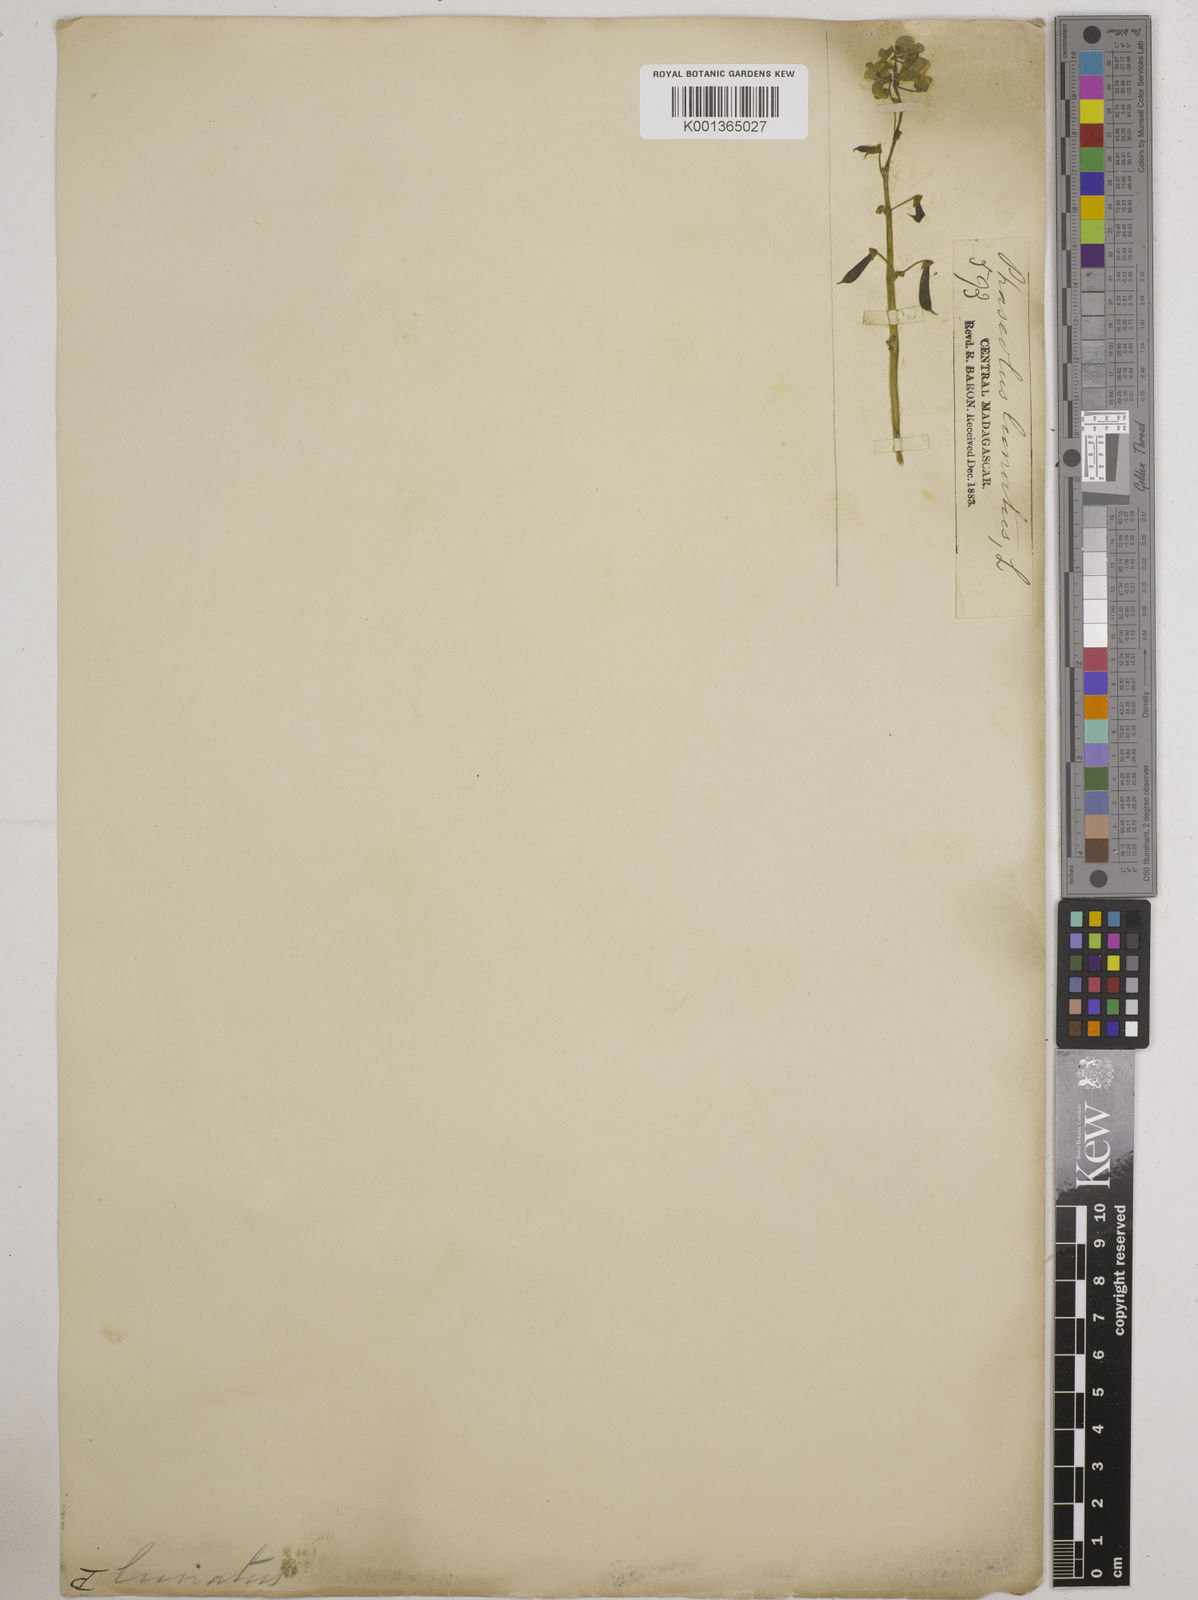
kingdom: Plantae
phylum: Tracheophyta
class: Magnoliopsida
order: Fabales
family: Fabaceae
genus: Phaseolus
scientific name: Phaseolus lunatus
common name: Sieva bean
